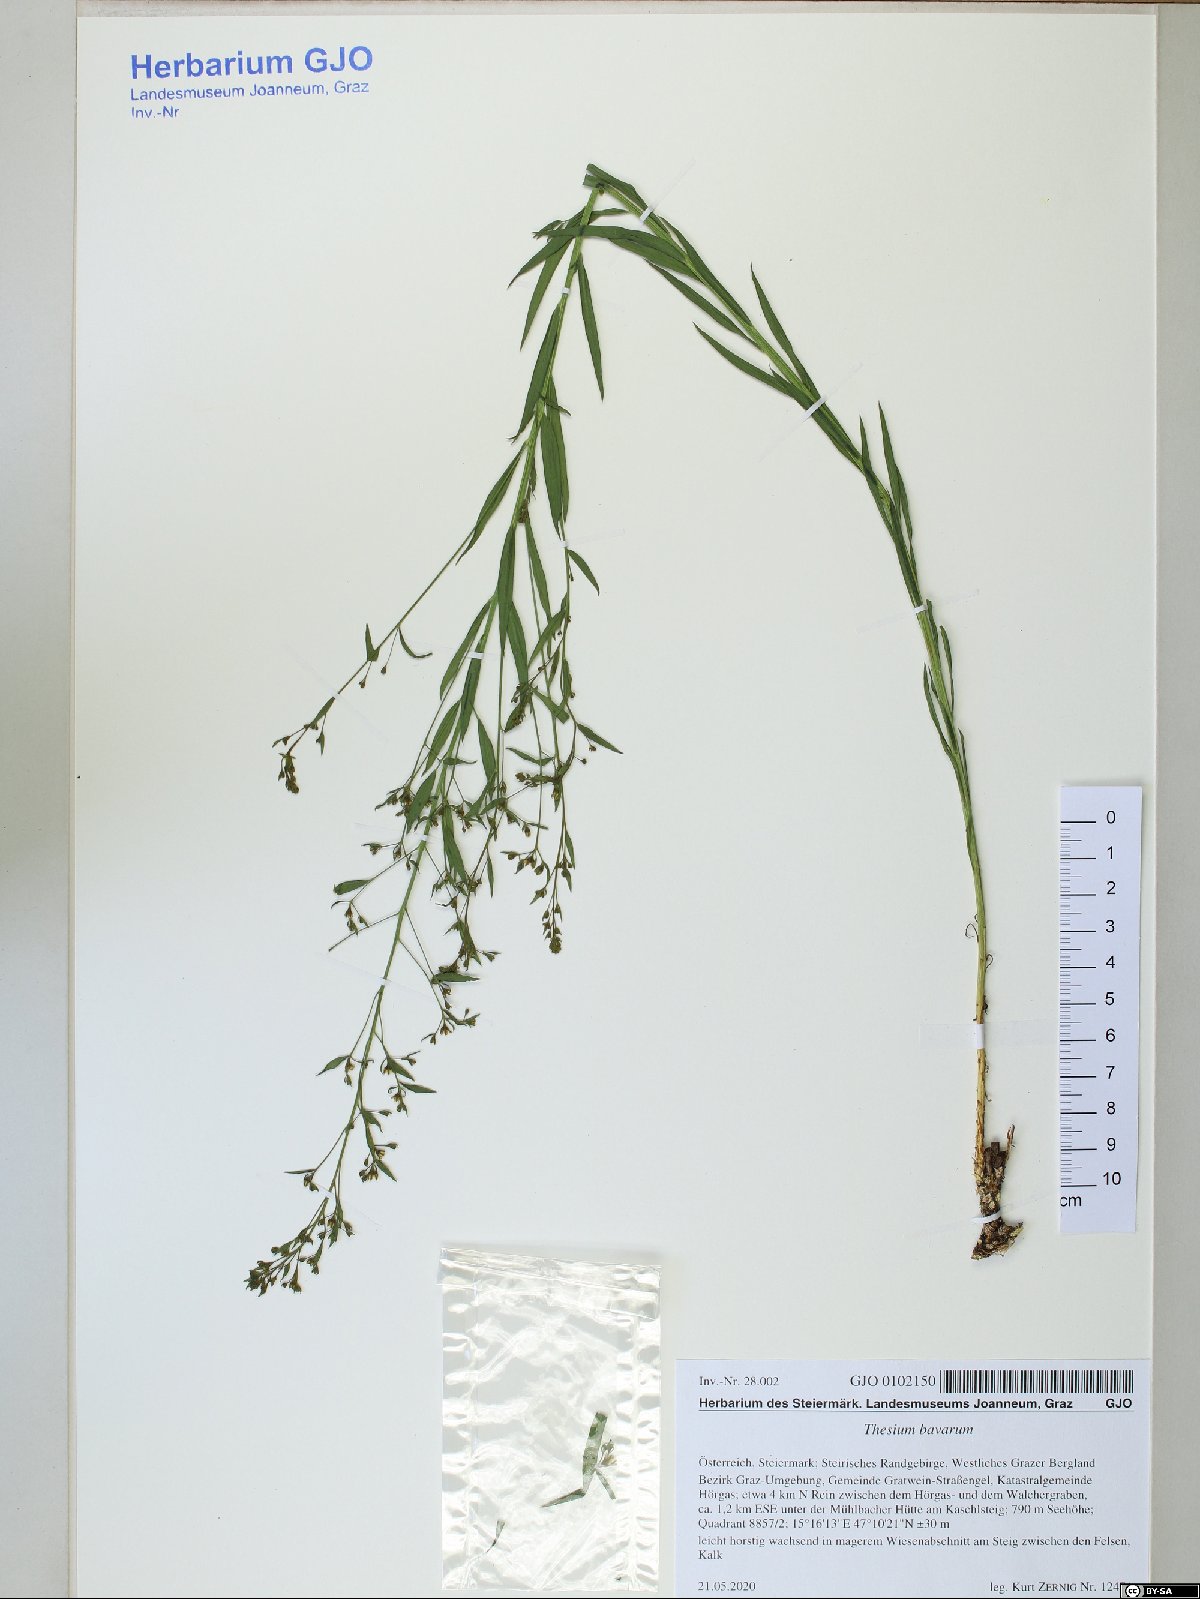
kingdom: Plantae
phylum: Tracheophyta
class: Magnoliopsida
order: Santalales
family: Thesiaceae
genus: Thesium
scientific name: Thesium bavarum
